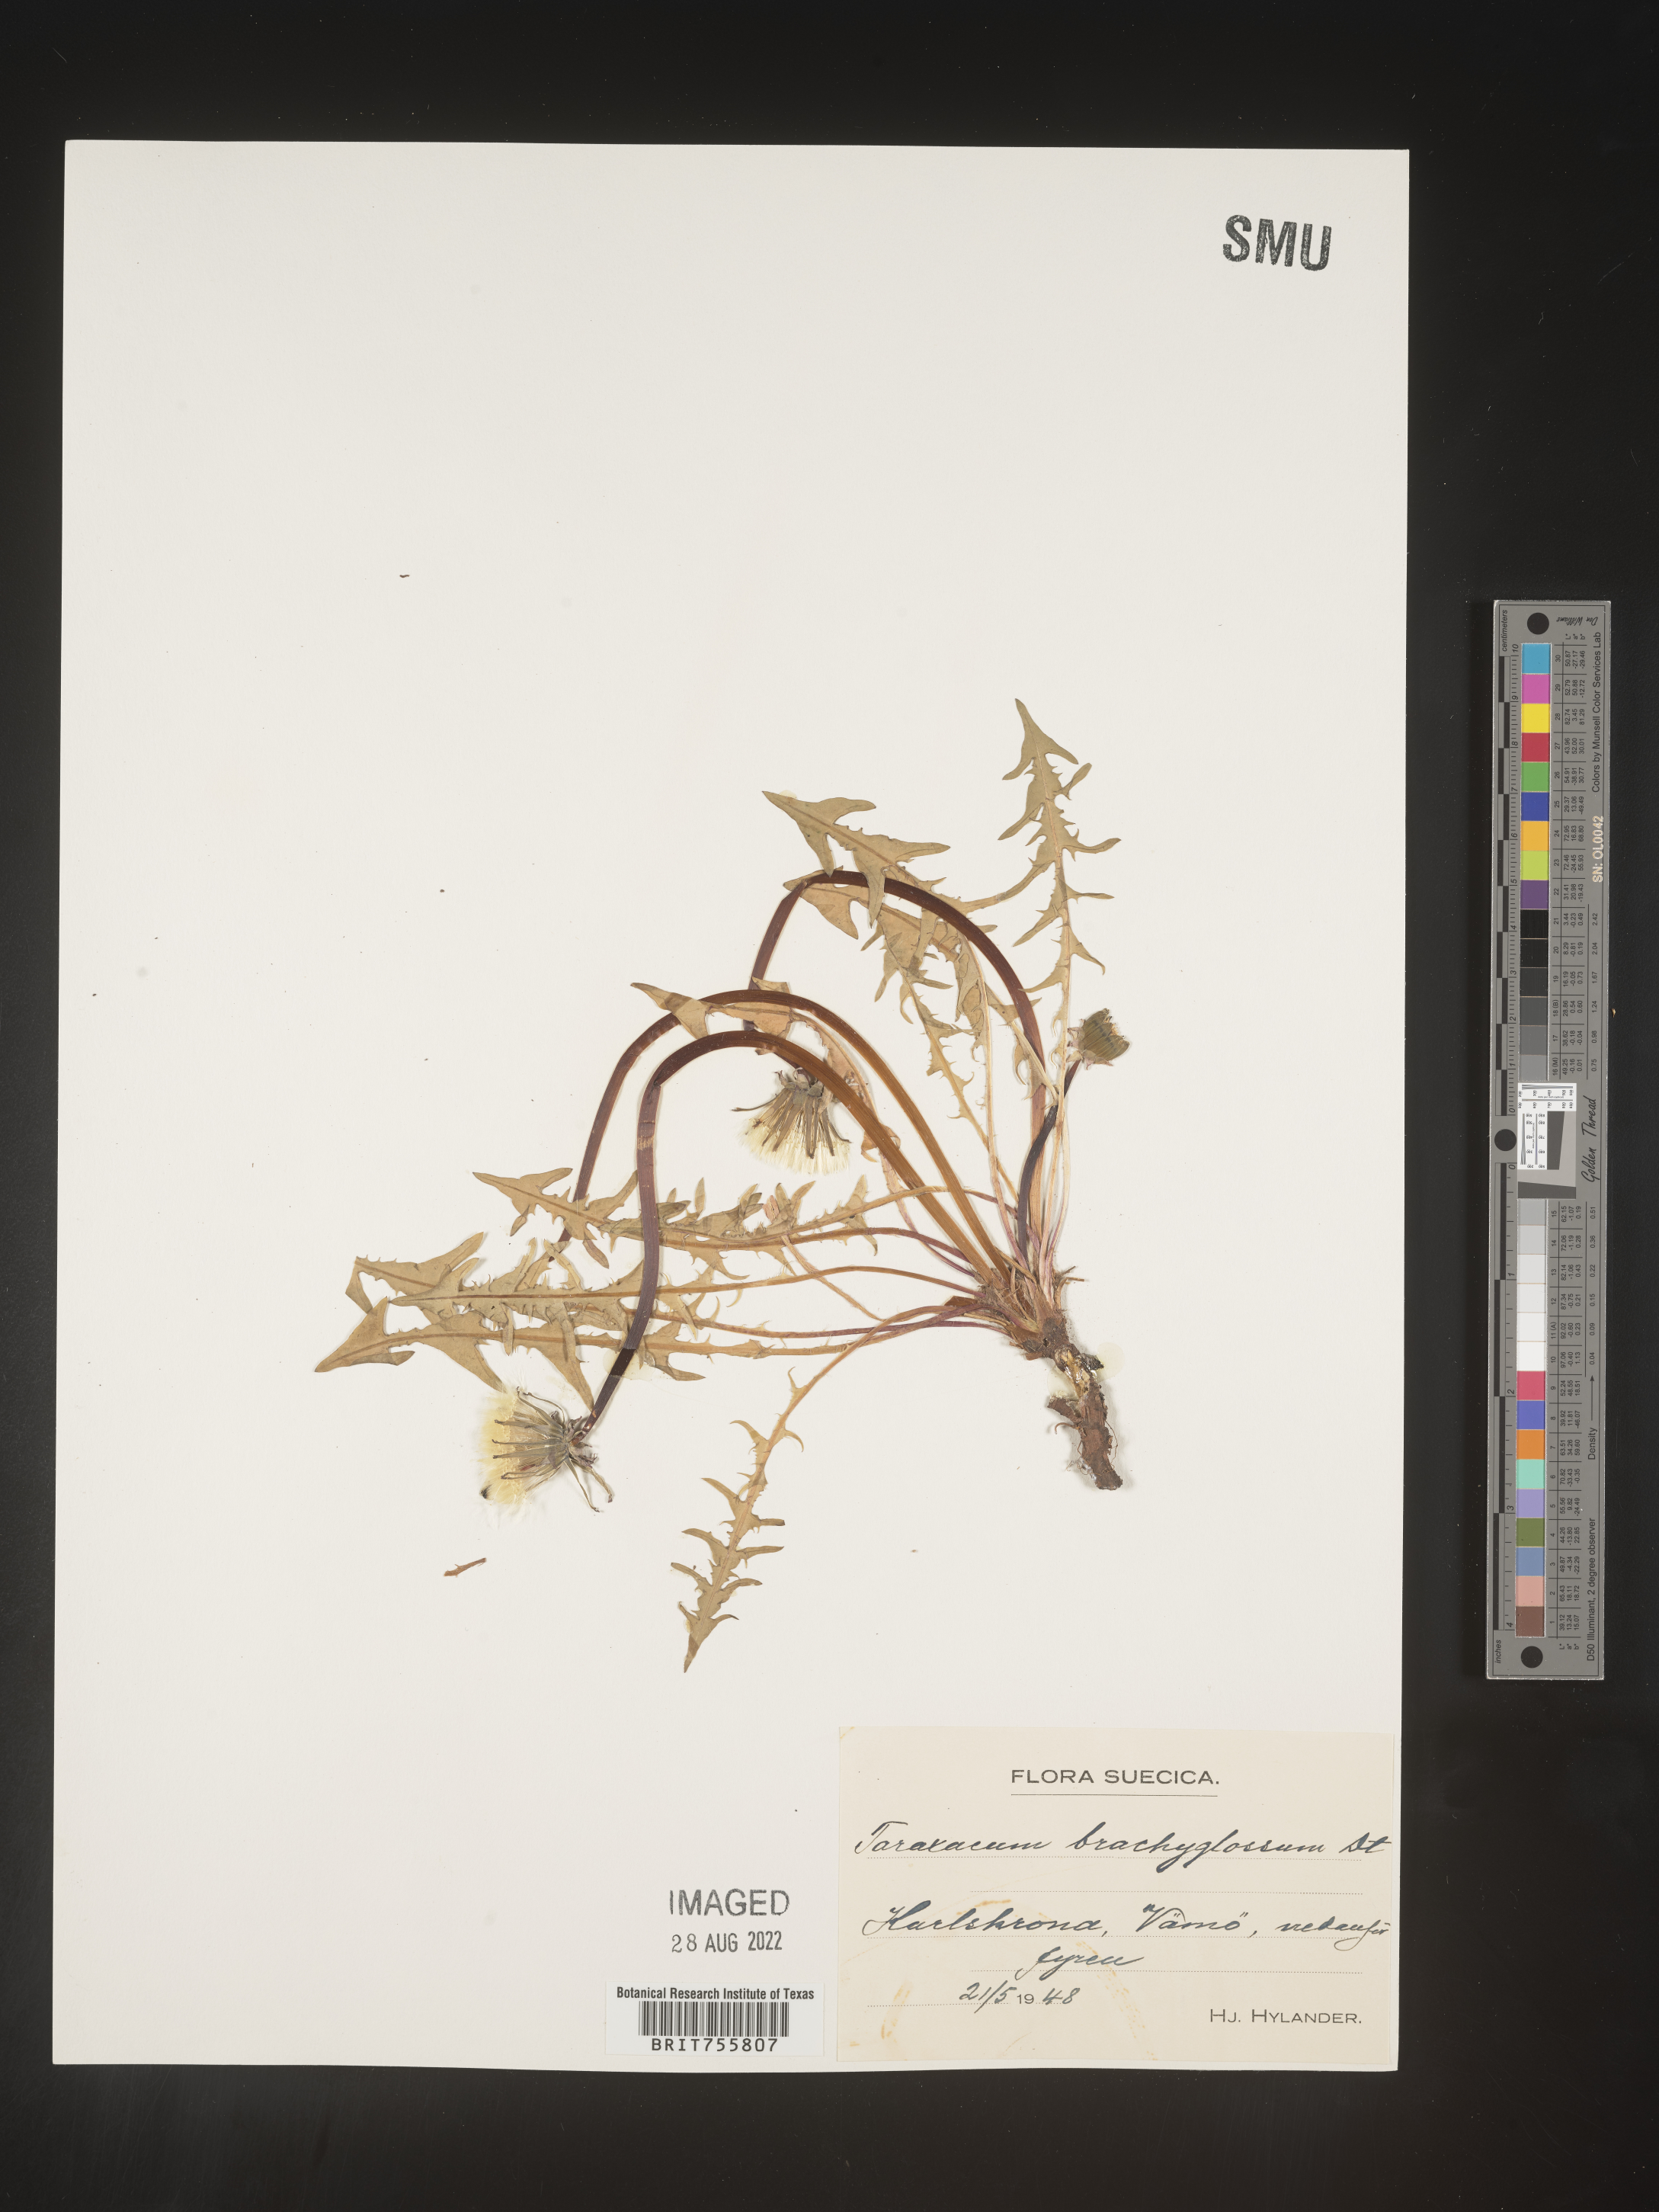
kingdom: Plantae
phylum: Tracheophyta
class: Magnoliopsida
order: Asterales
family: Asteraceae
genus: Taraxacum
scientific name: Taraxacum
